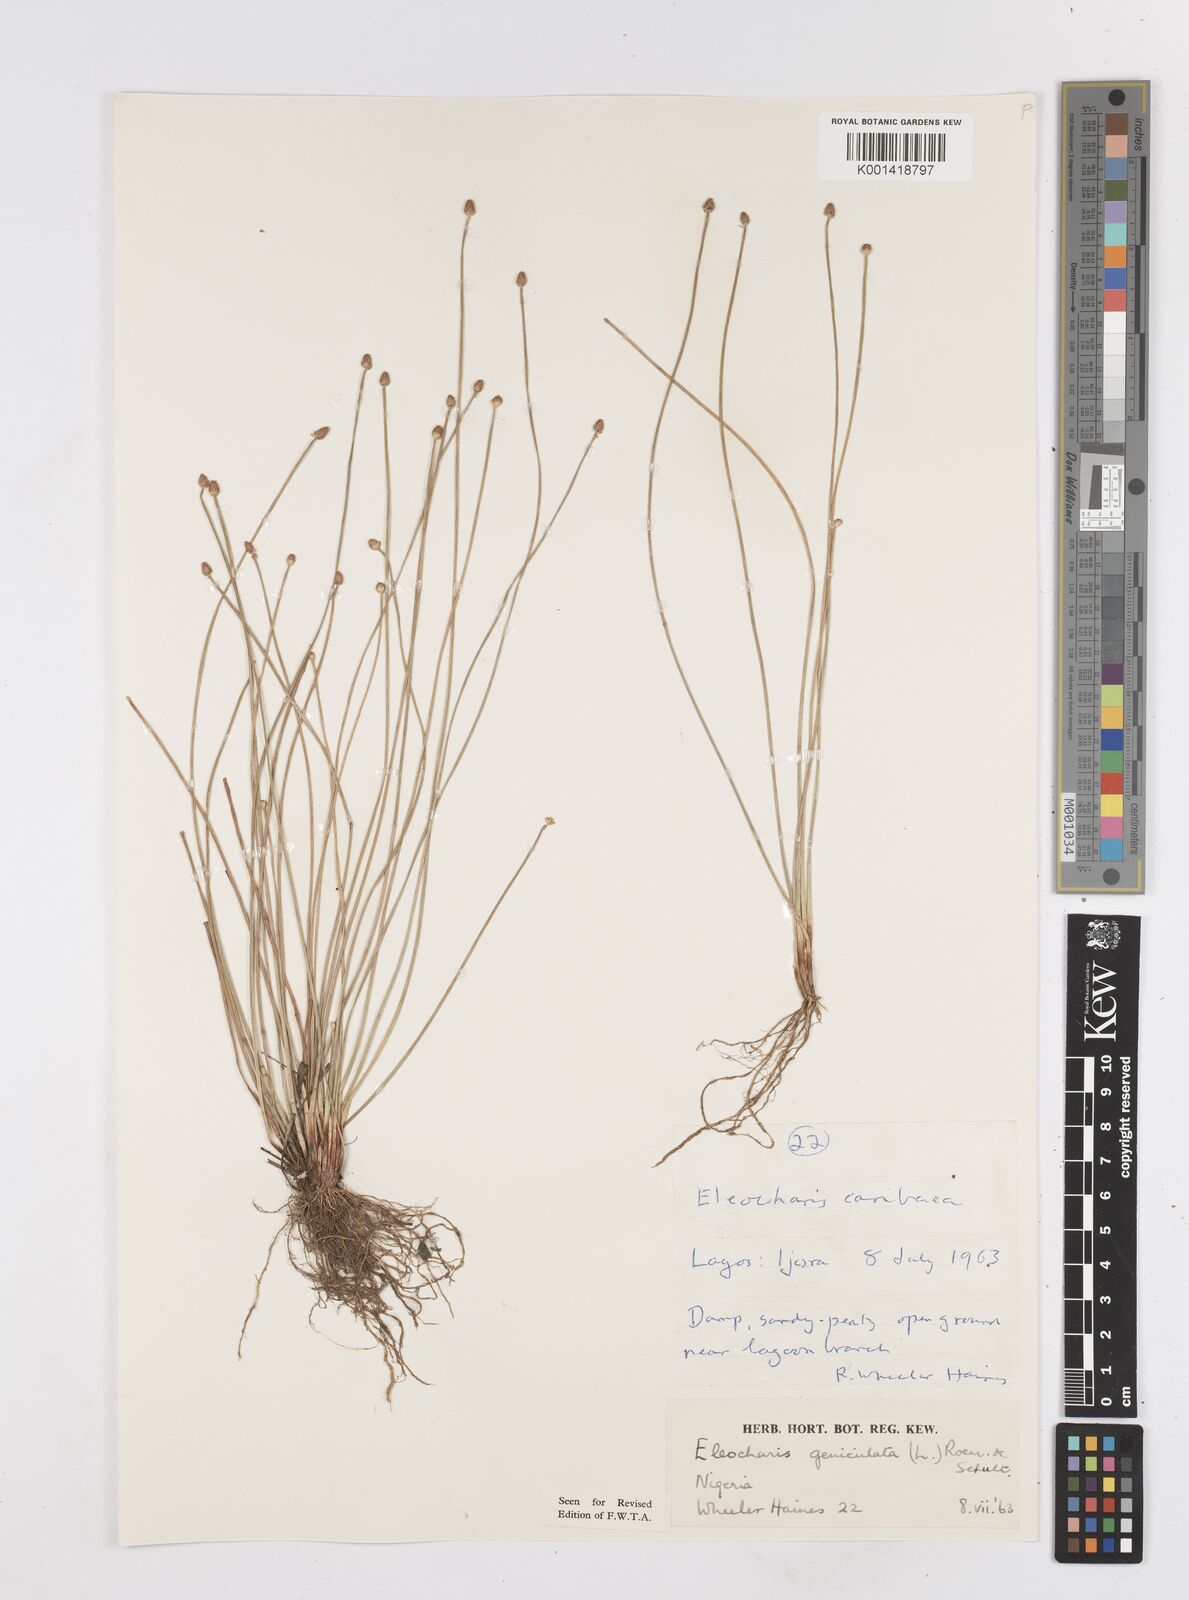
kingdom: Plantae
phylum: Tracheophyta
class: Liliopsida
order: Poales
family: Cyperaceae
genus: Eleocharis
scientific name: Eleocharis geniculata
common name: Canada spikesedge
